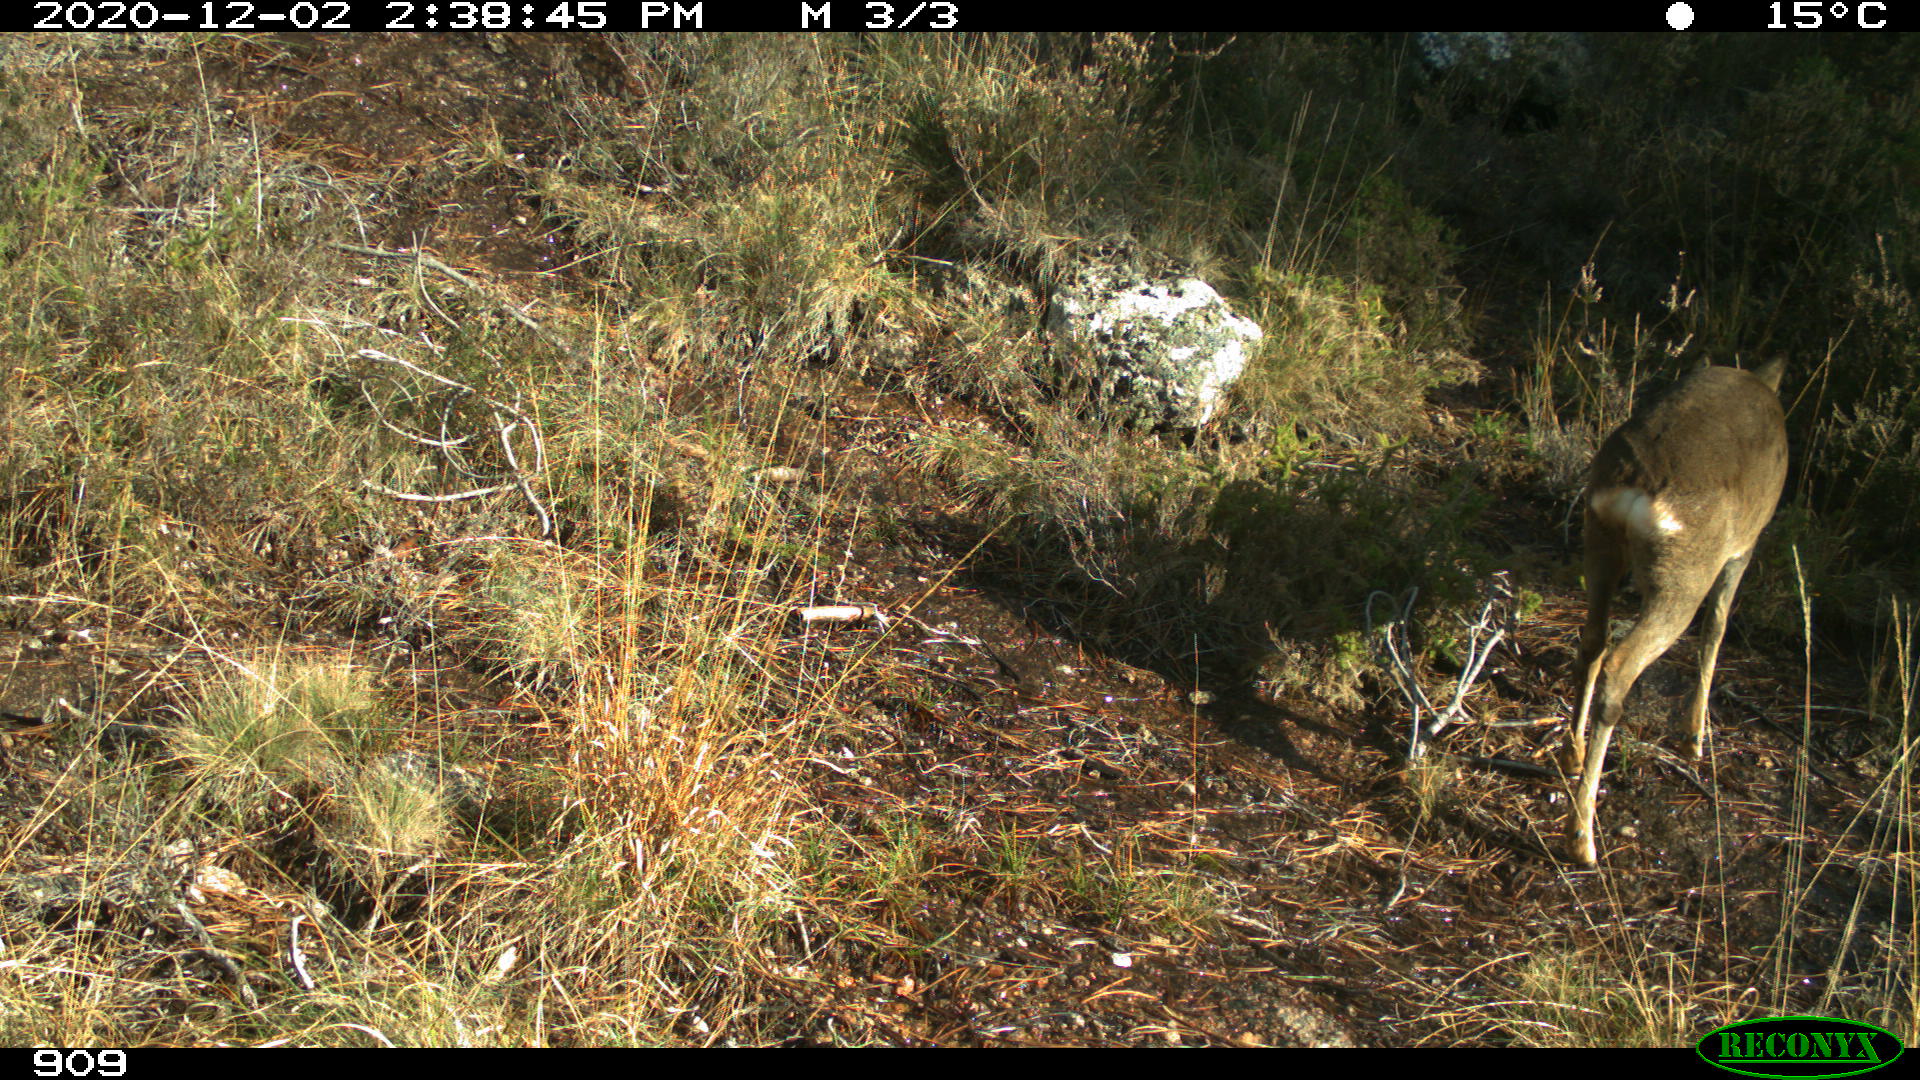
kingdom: Animalia
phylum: Chordata
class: Mammalia
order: Artiodactyla
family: Cervidae
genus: Capreolus
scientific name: Capreolus capreolus
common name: Western roe deer
